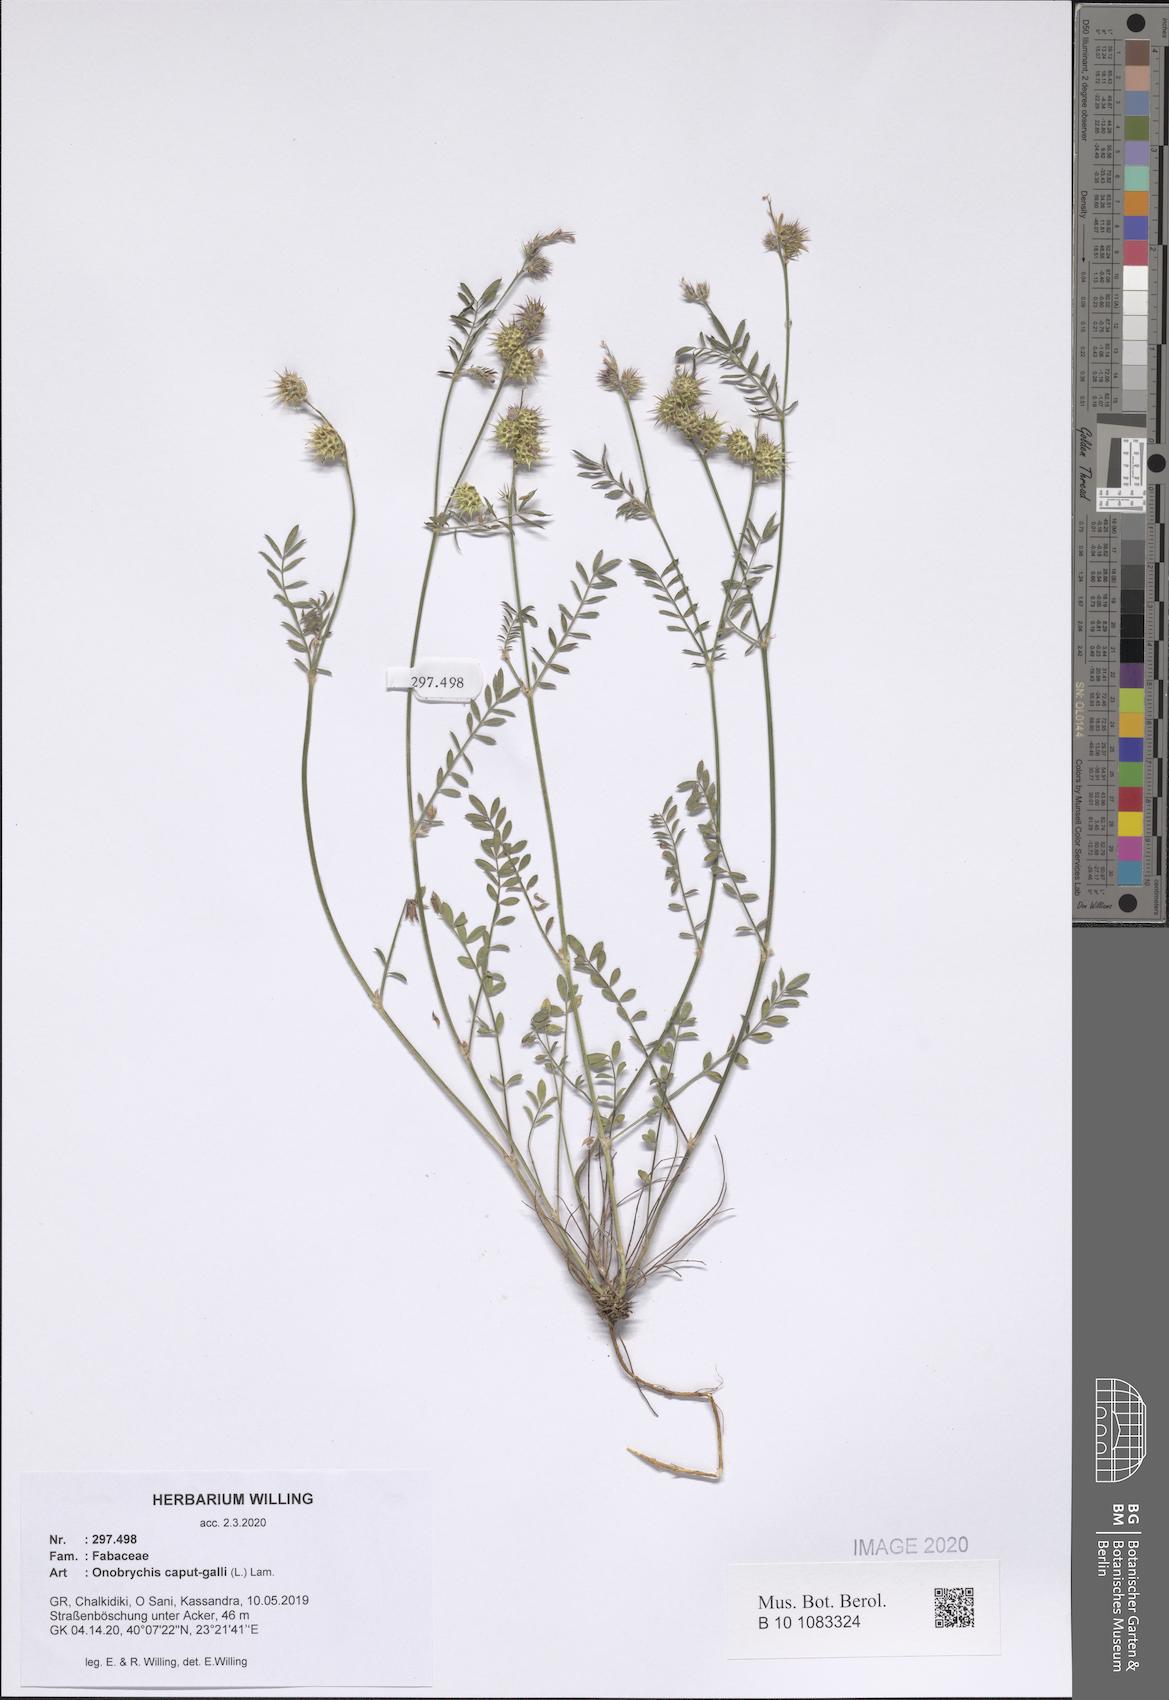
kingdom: Plantae
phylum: Tracheophyta
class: Magnoliopsida
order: Fabales
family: Fabaceae
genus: Onobrychis
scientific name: Onobrychis caput-galli
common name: Cockscomb sainfoin
